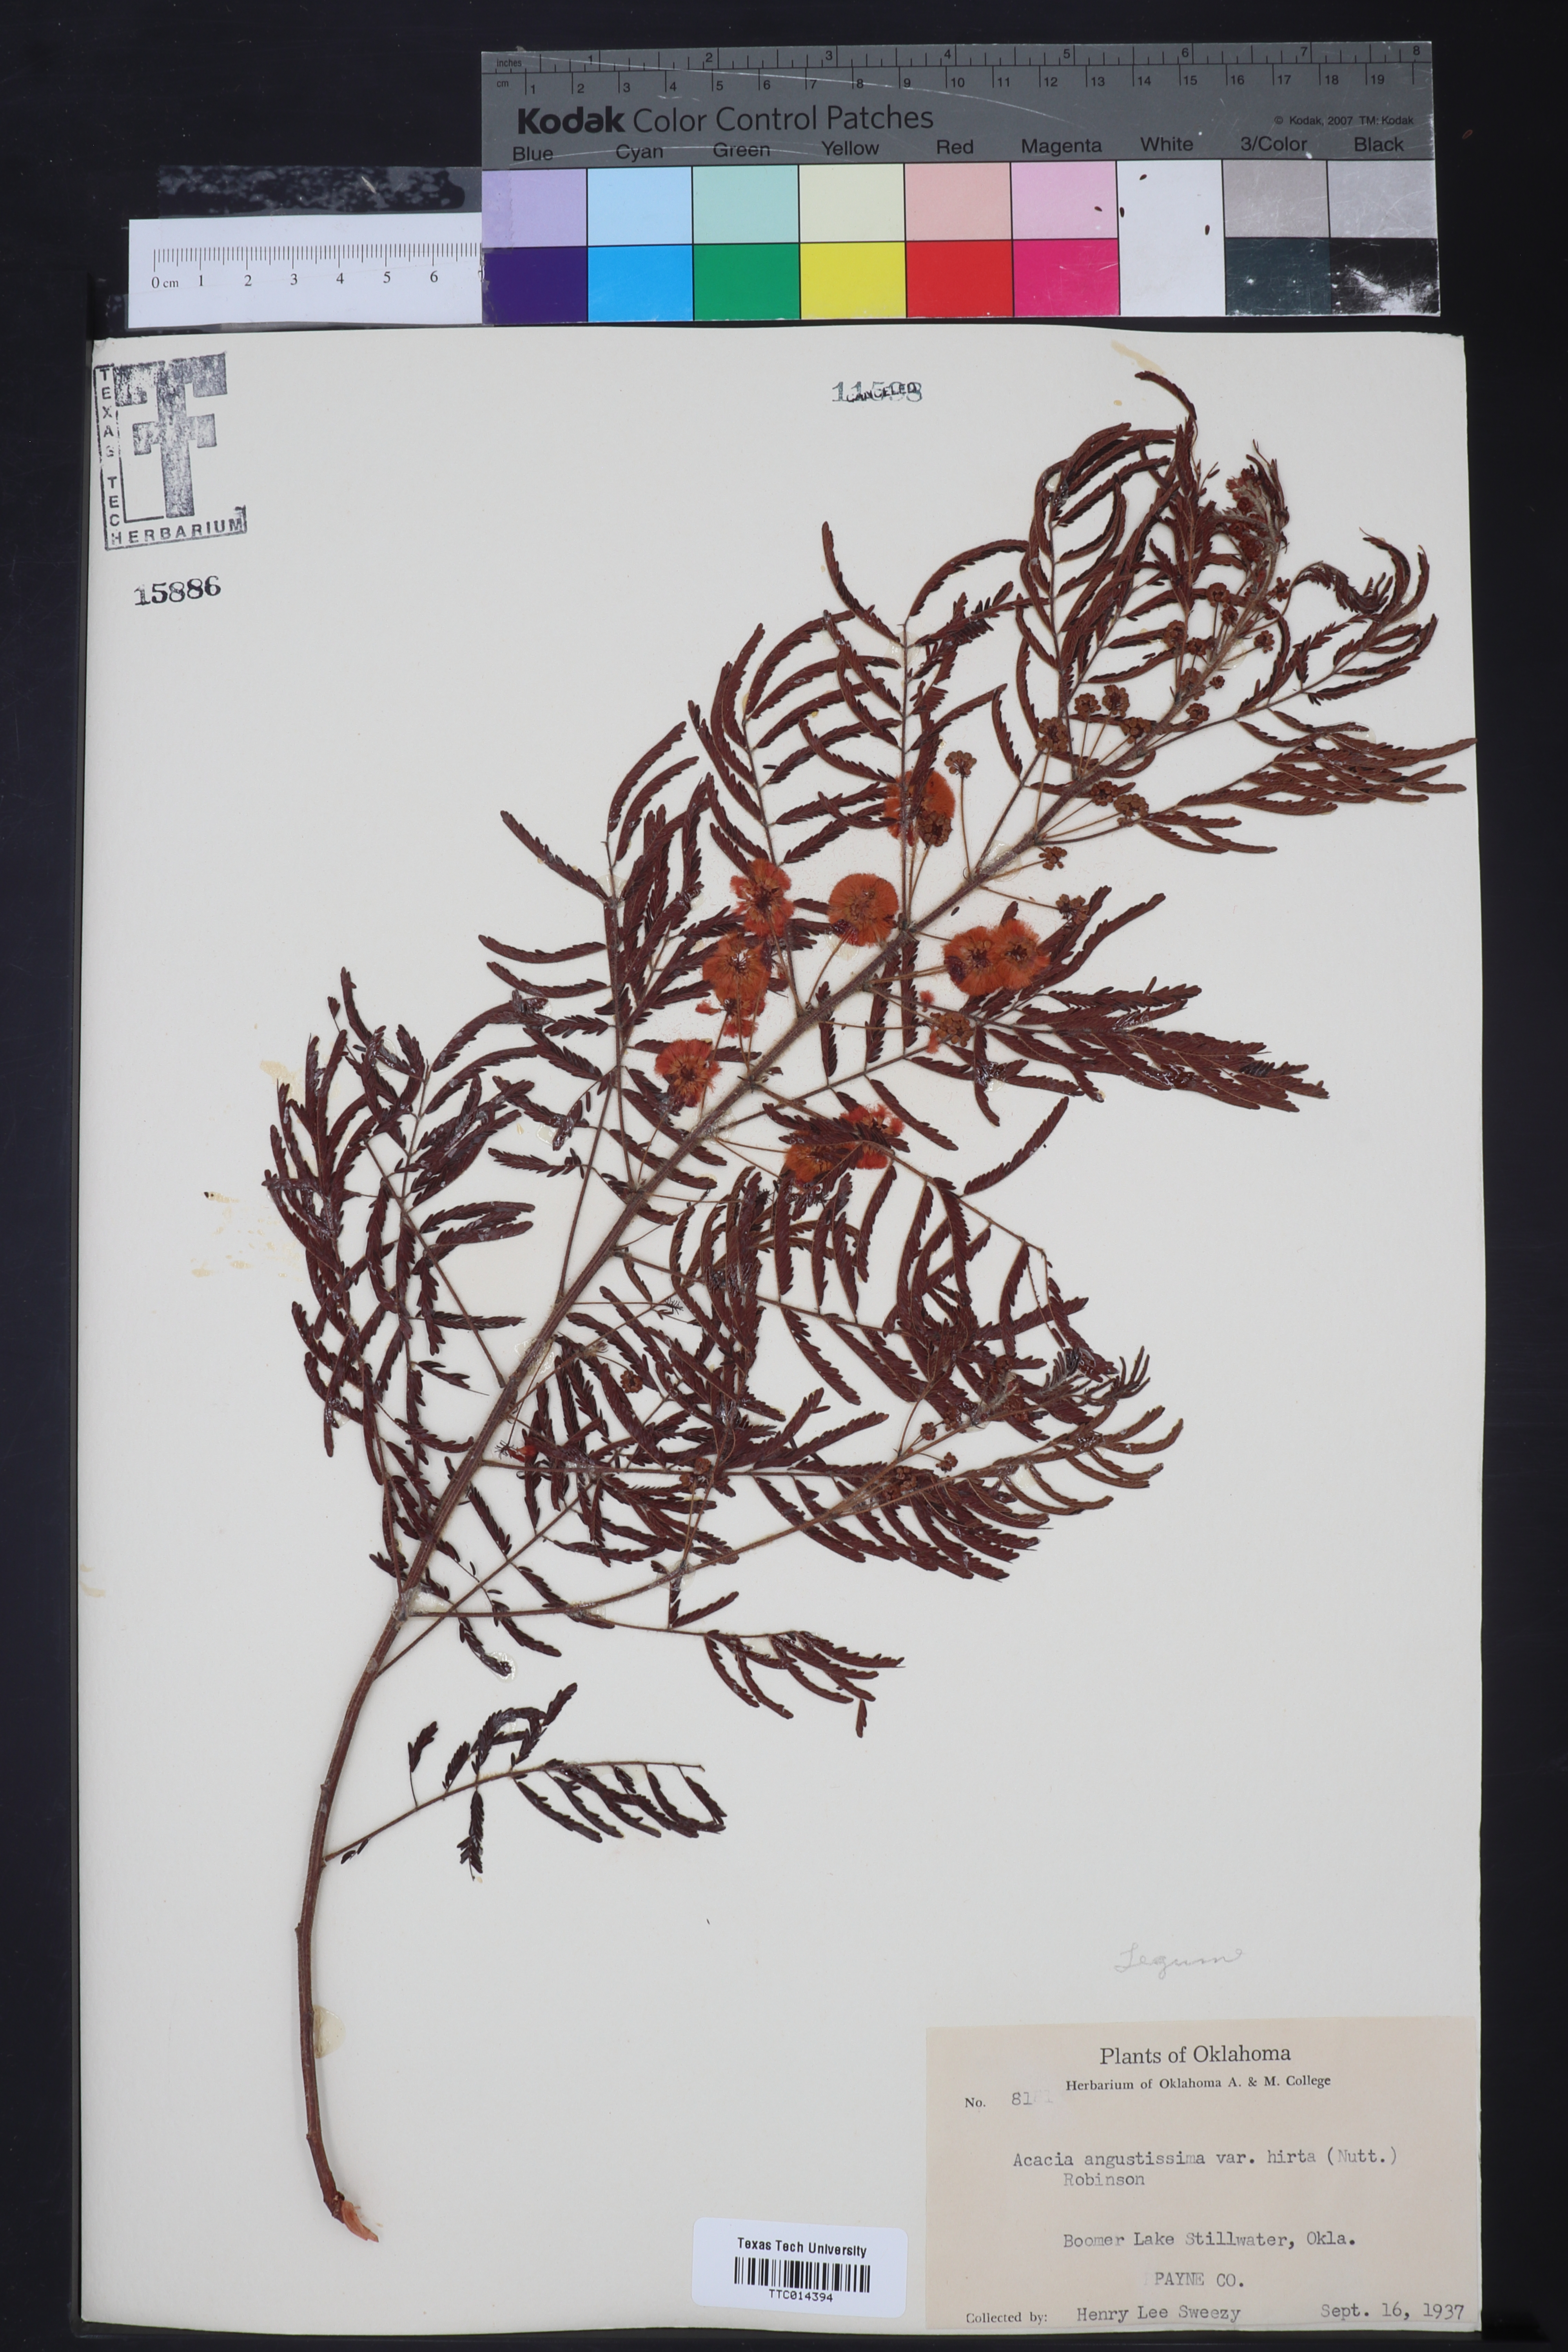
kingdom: Plantae
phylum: Tracheophyta
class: Magnoliopsida
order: Fabales
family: Fabaceae
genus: Acaciella
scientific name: Acaciella angustissima
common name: Prairie acacia
